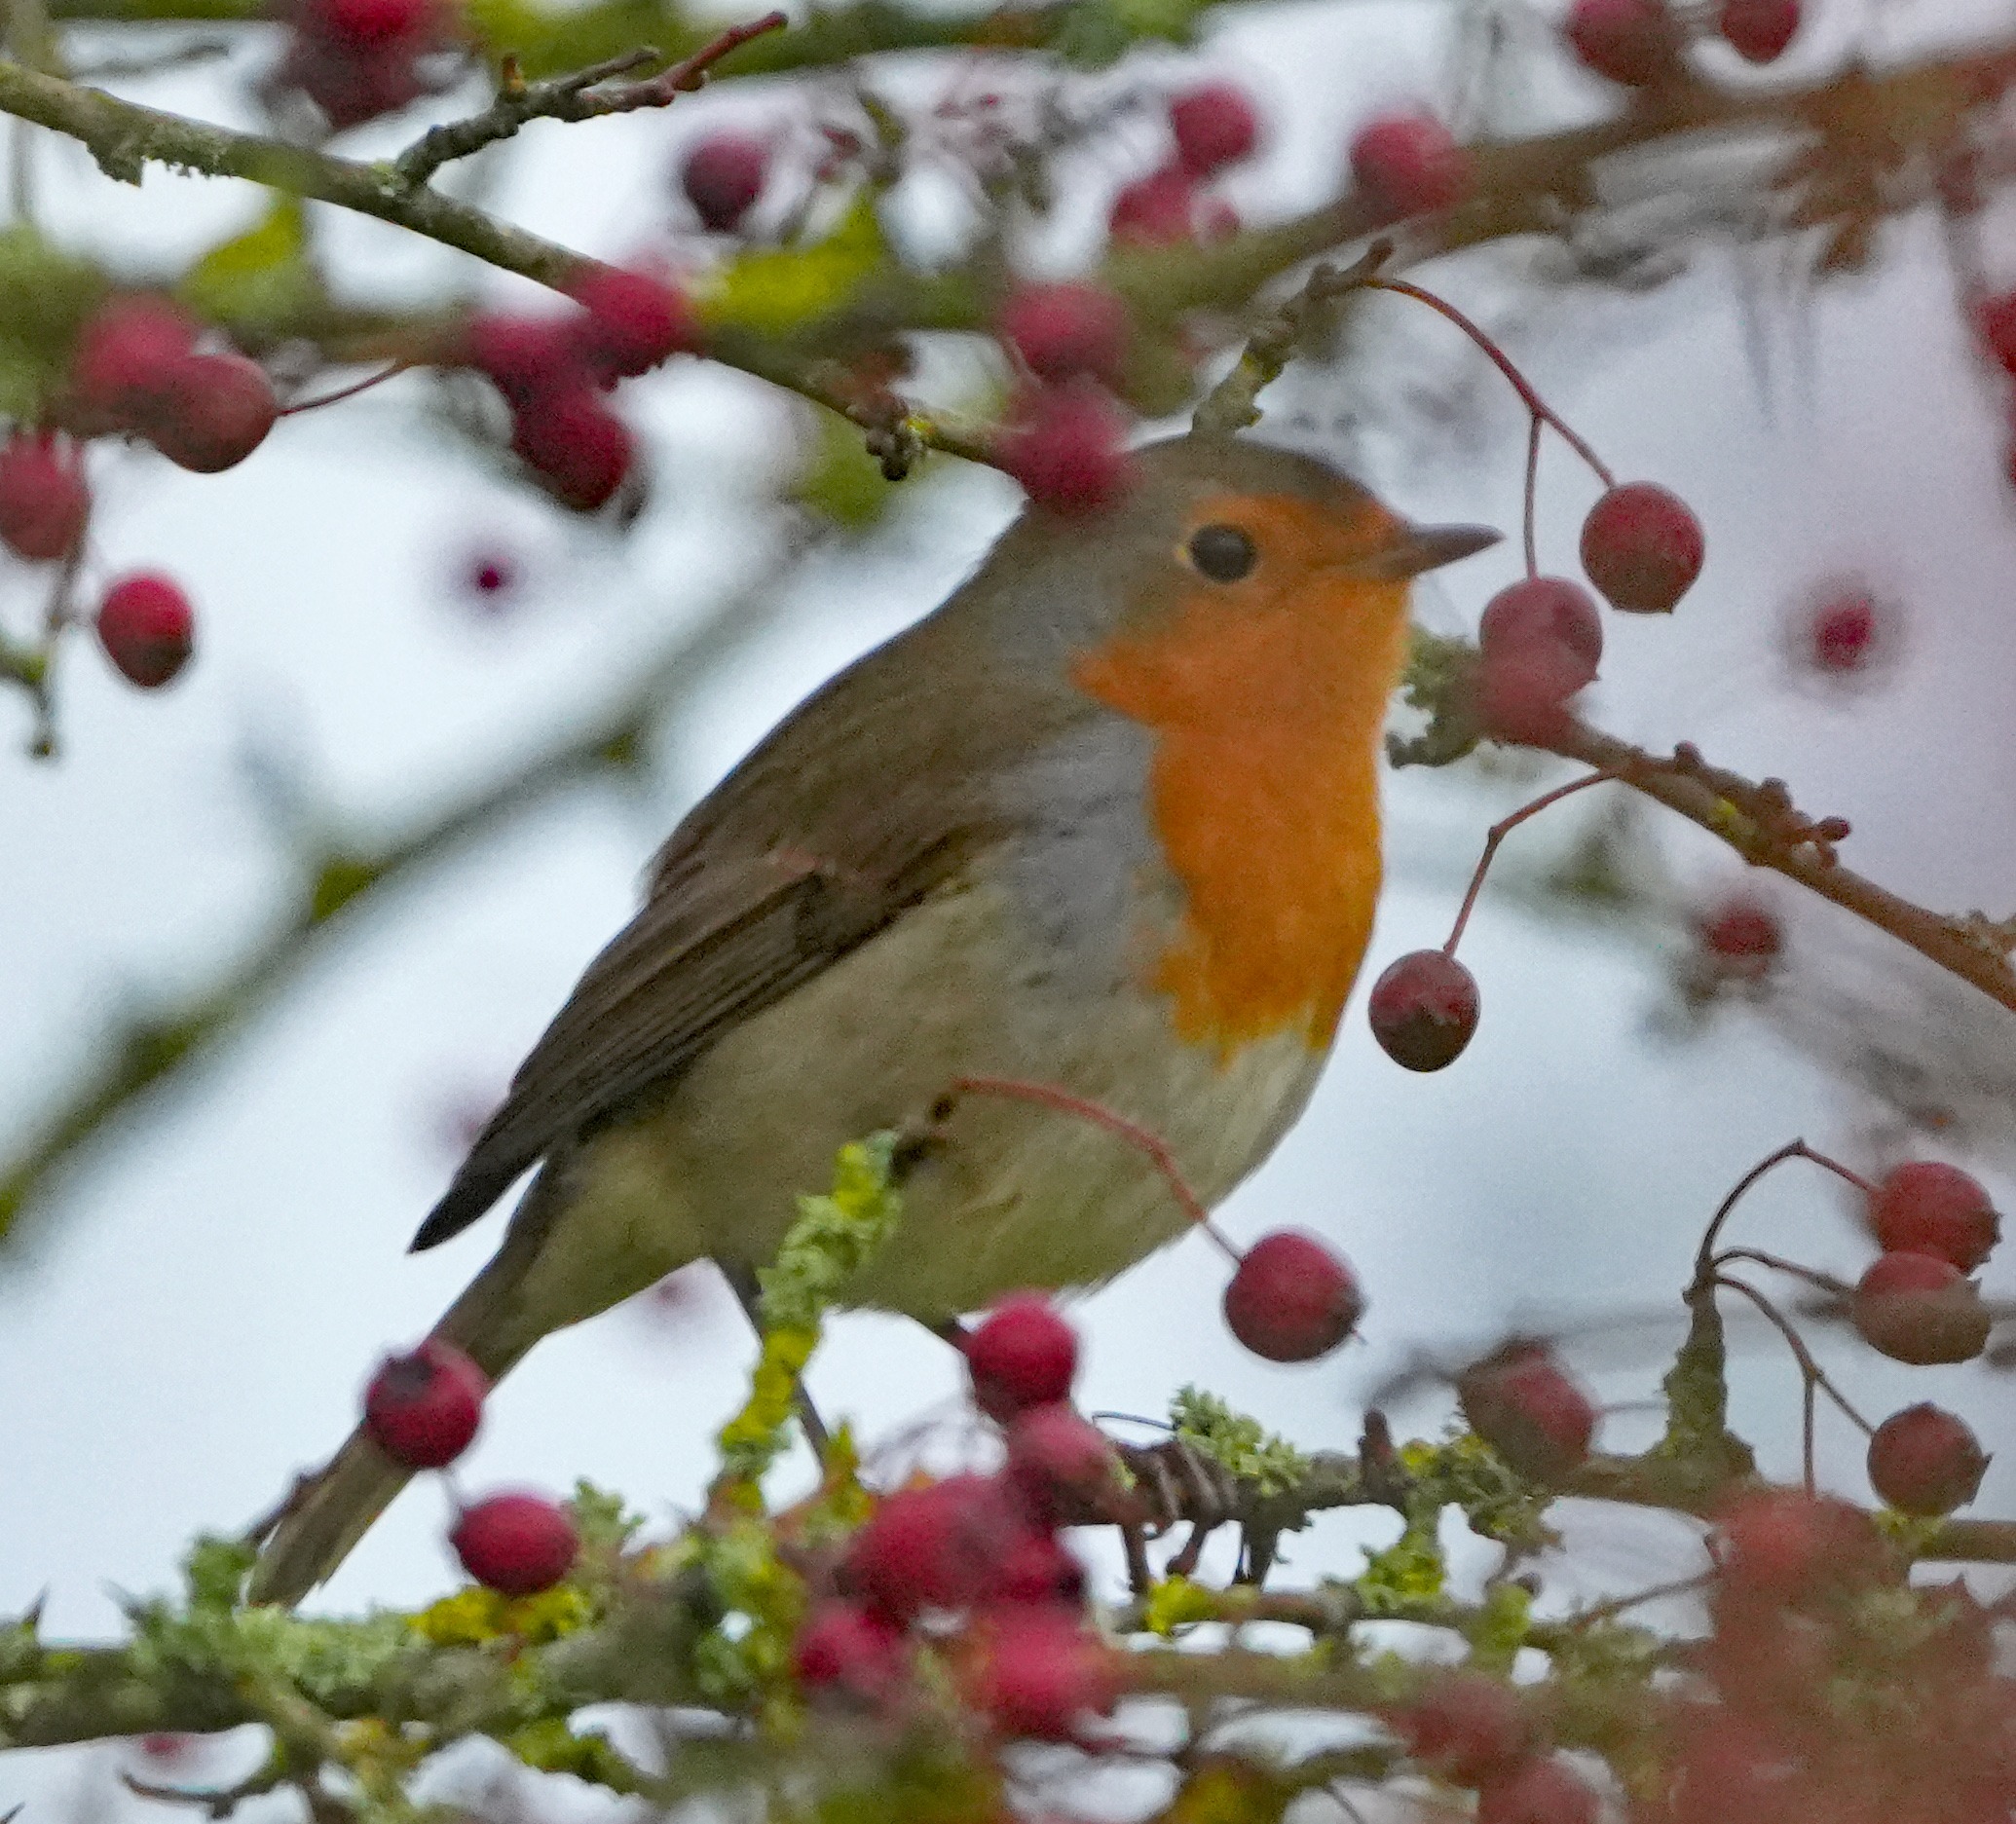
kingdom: Animalia
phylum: Chordata
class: Aves
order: Passeriformes
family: Muscicapidae
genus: Erithacus
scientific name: Erithacus rubecula
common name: Rødhals/rødkælk
